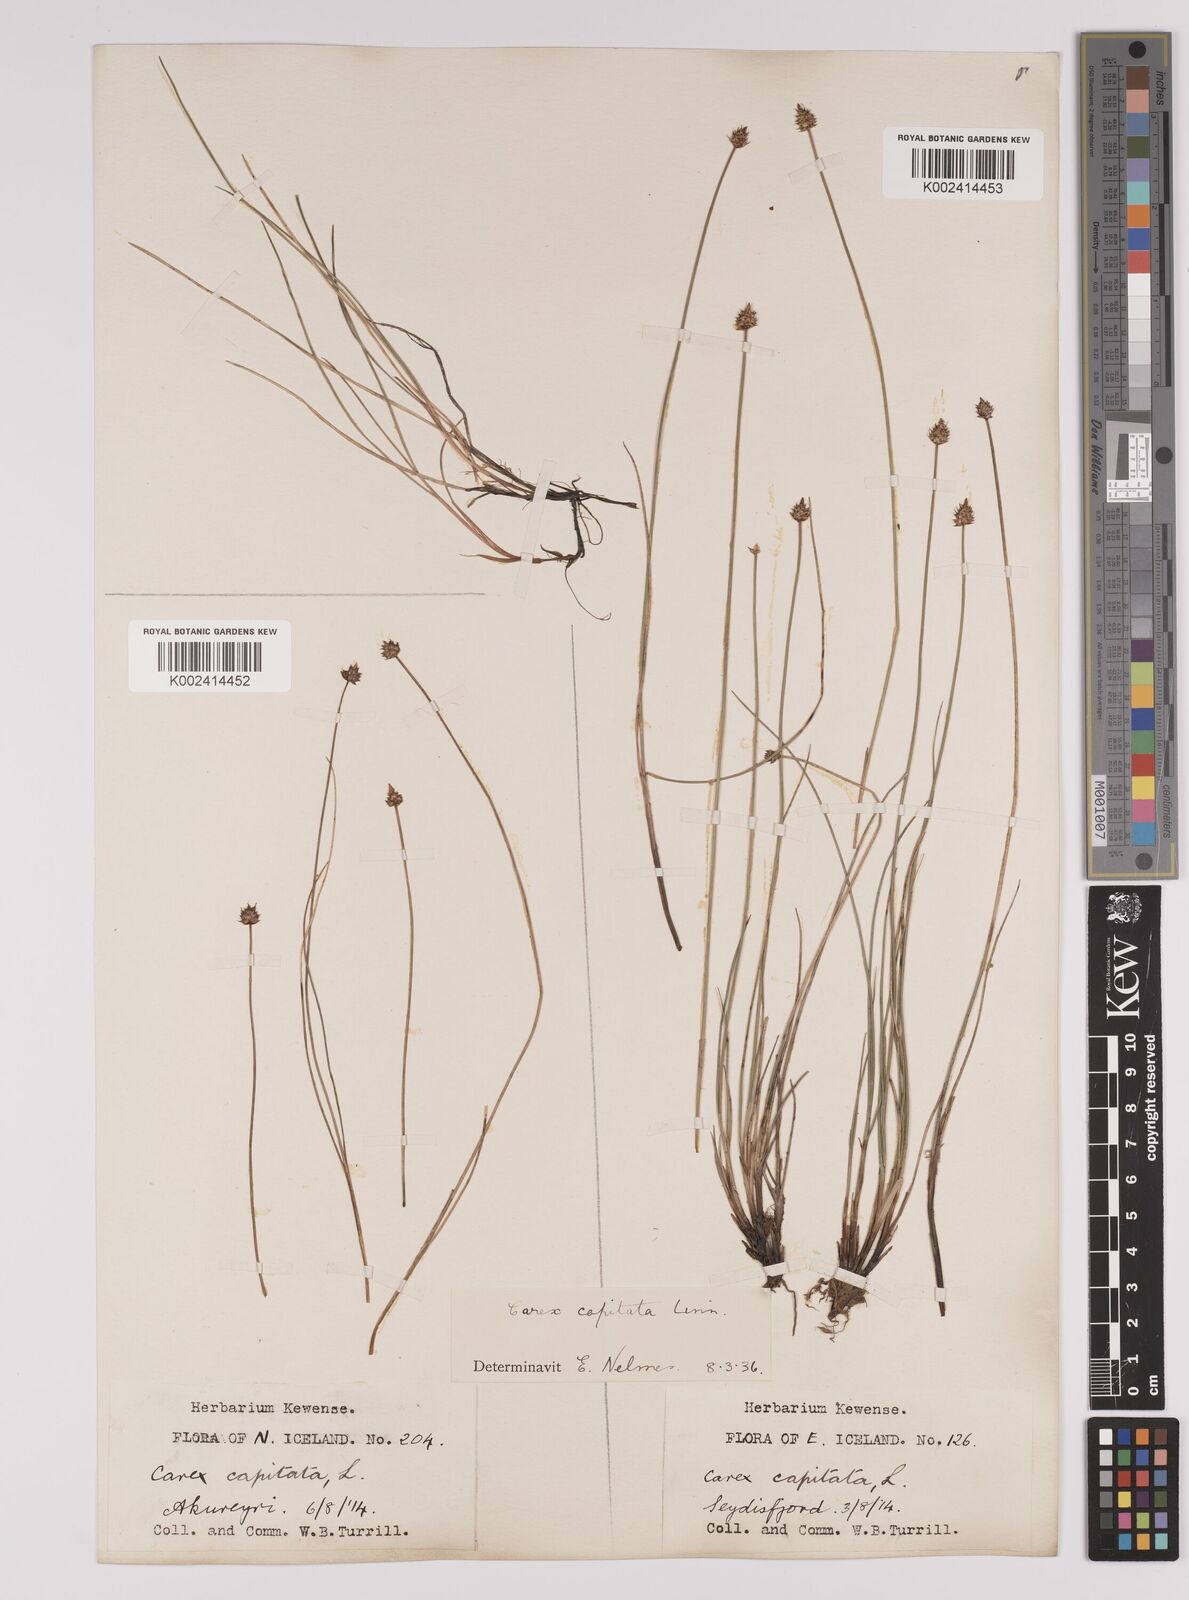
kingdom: Plantae
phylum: Tracheophyta
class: Liliopsida
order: Poales
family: Cyperaceae
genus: Carex
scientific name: Carex capitata
